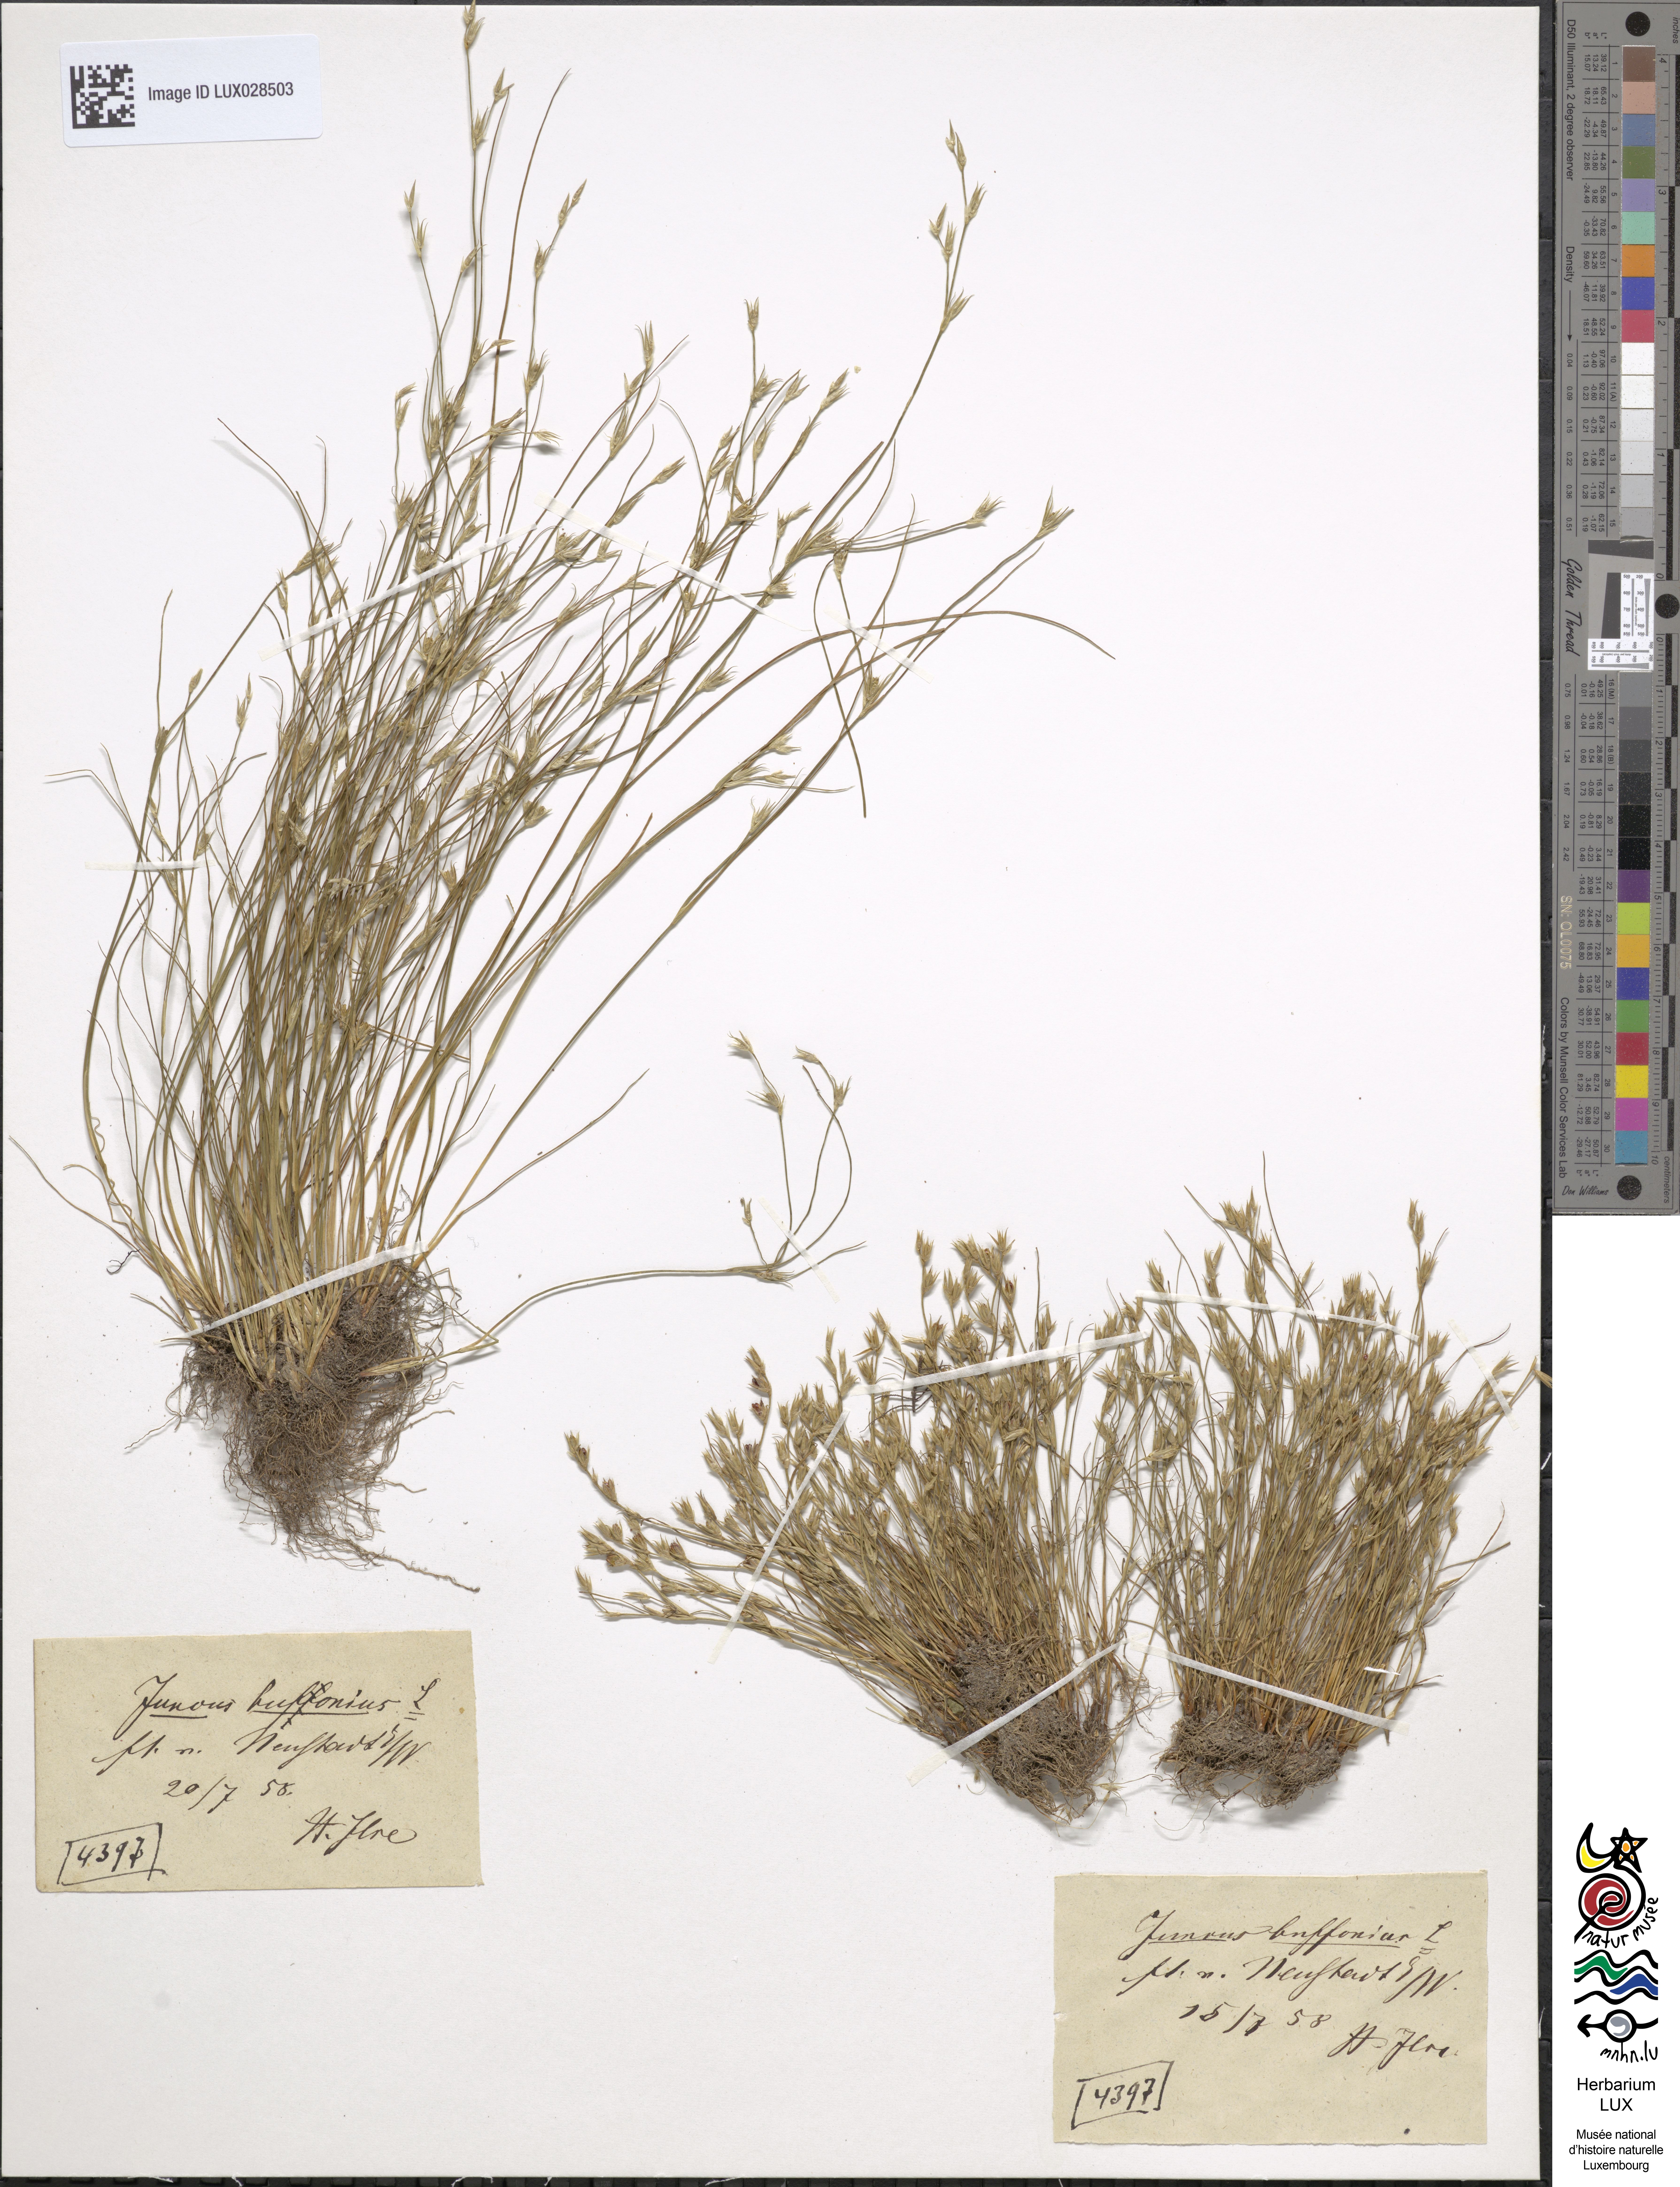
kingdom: Plantae
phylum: Tracheophyta
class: Liliopsida
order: Poales
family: Juncaceae
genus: Juncus
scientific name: Juncus bufonius
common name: Toad rush
